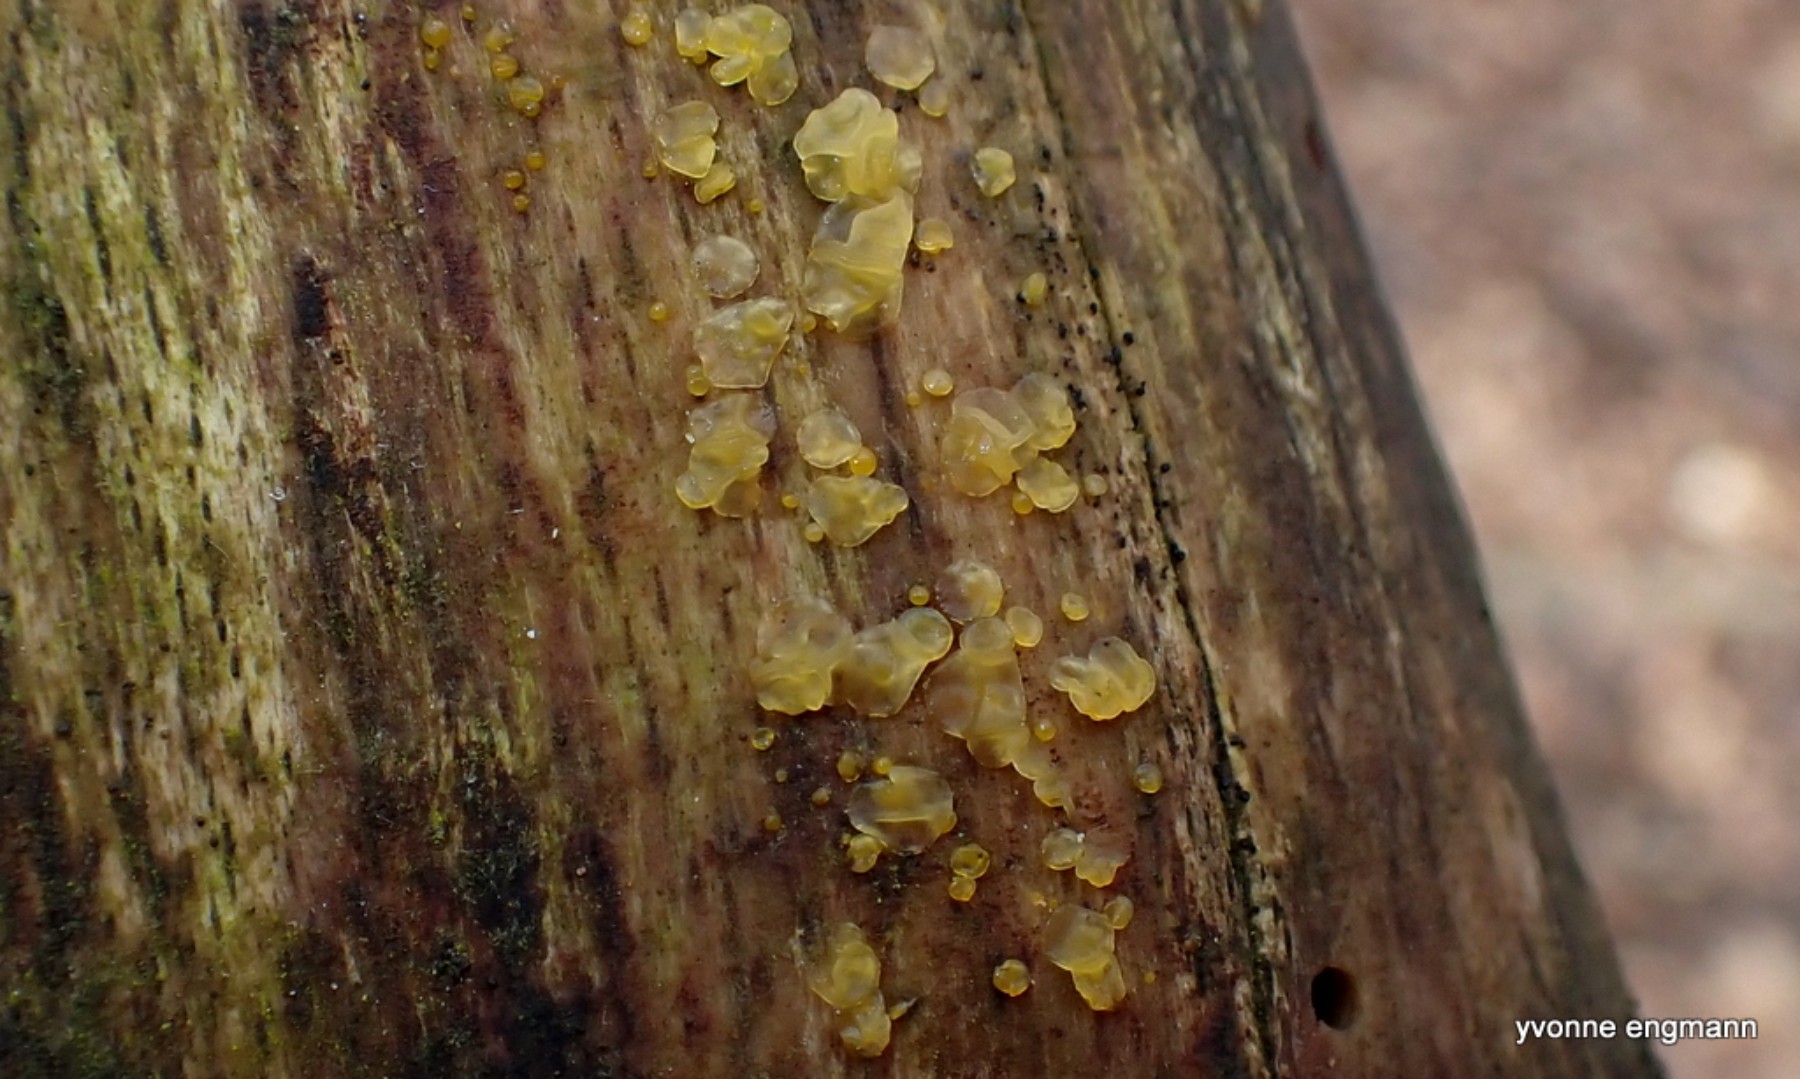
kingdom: Fungi
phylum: Basidiomycota
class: Dacrymycetes
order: Dacrymycetales
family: Dacrymycetaceae
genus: Dacrymyces
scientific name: Dacrymyces lacrymalis
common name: rynket tåresvamp
